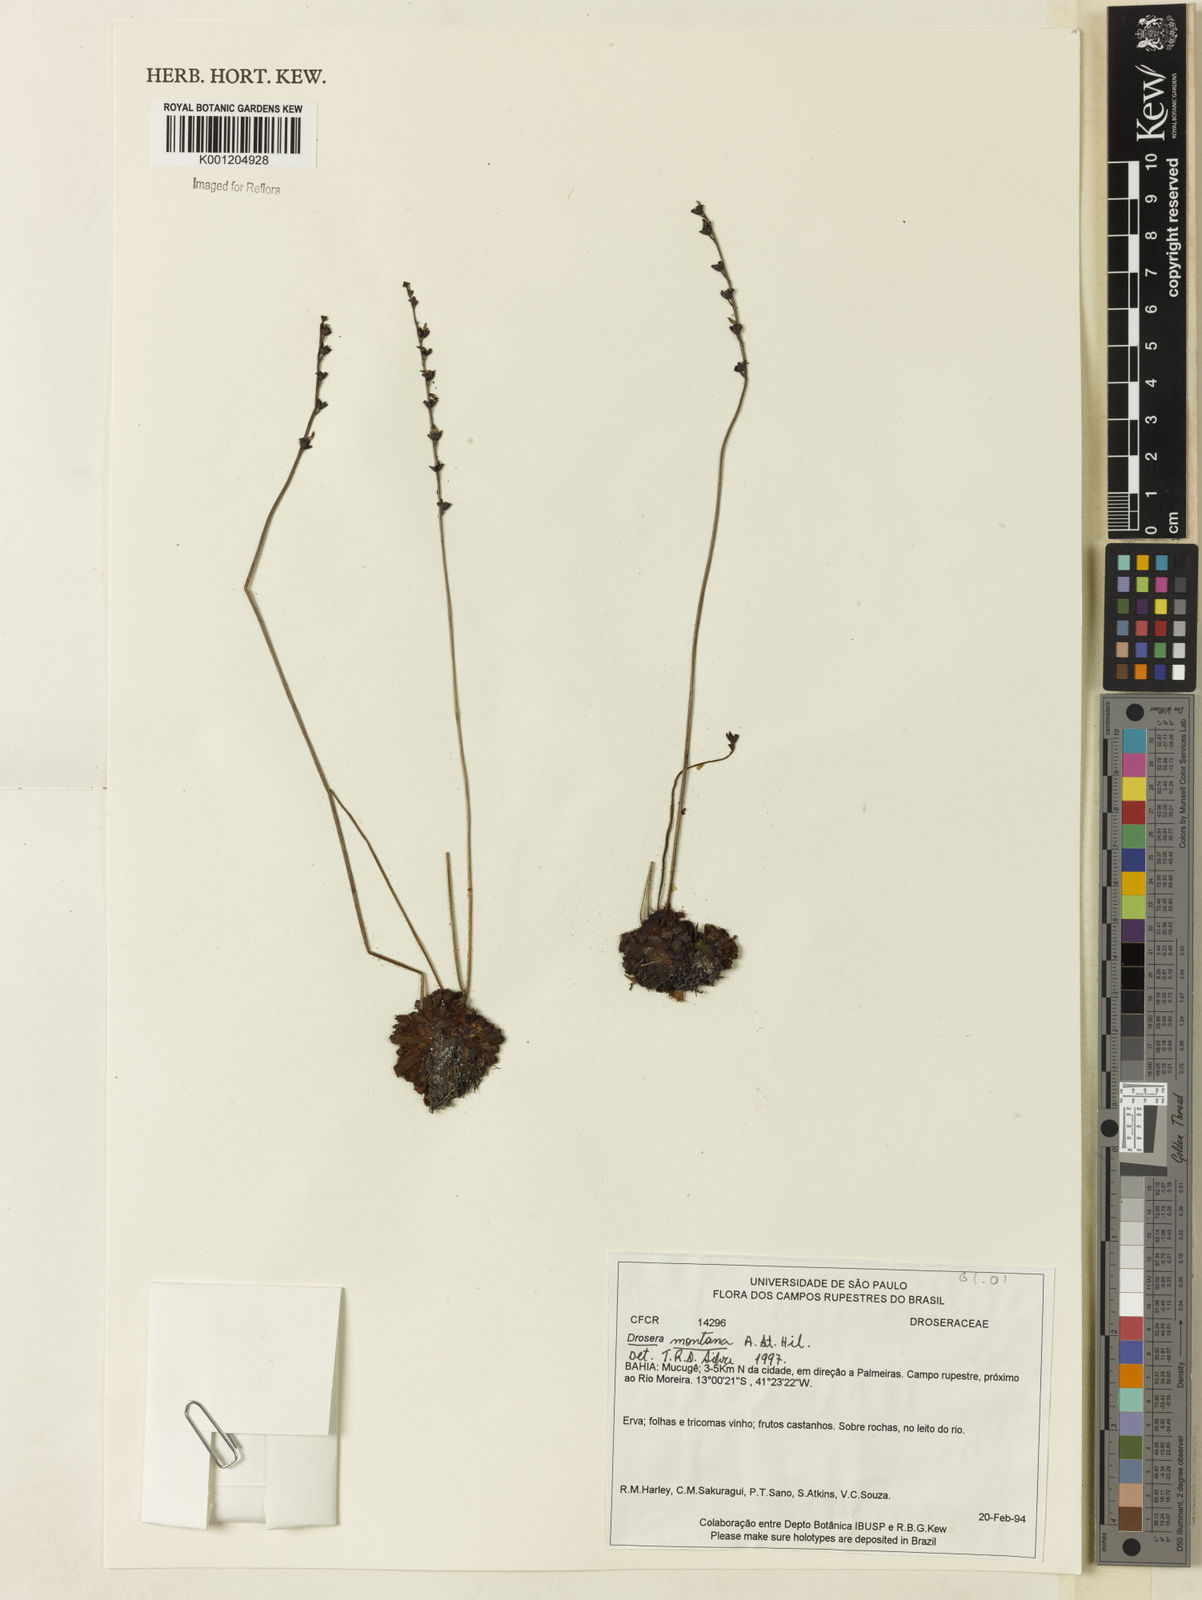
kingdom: Plantae
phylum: Tracheophyta
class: Magnoliopsida
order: Caryophyllales
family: Droseraceae
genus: Drosera
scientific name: Drosera montana
